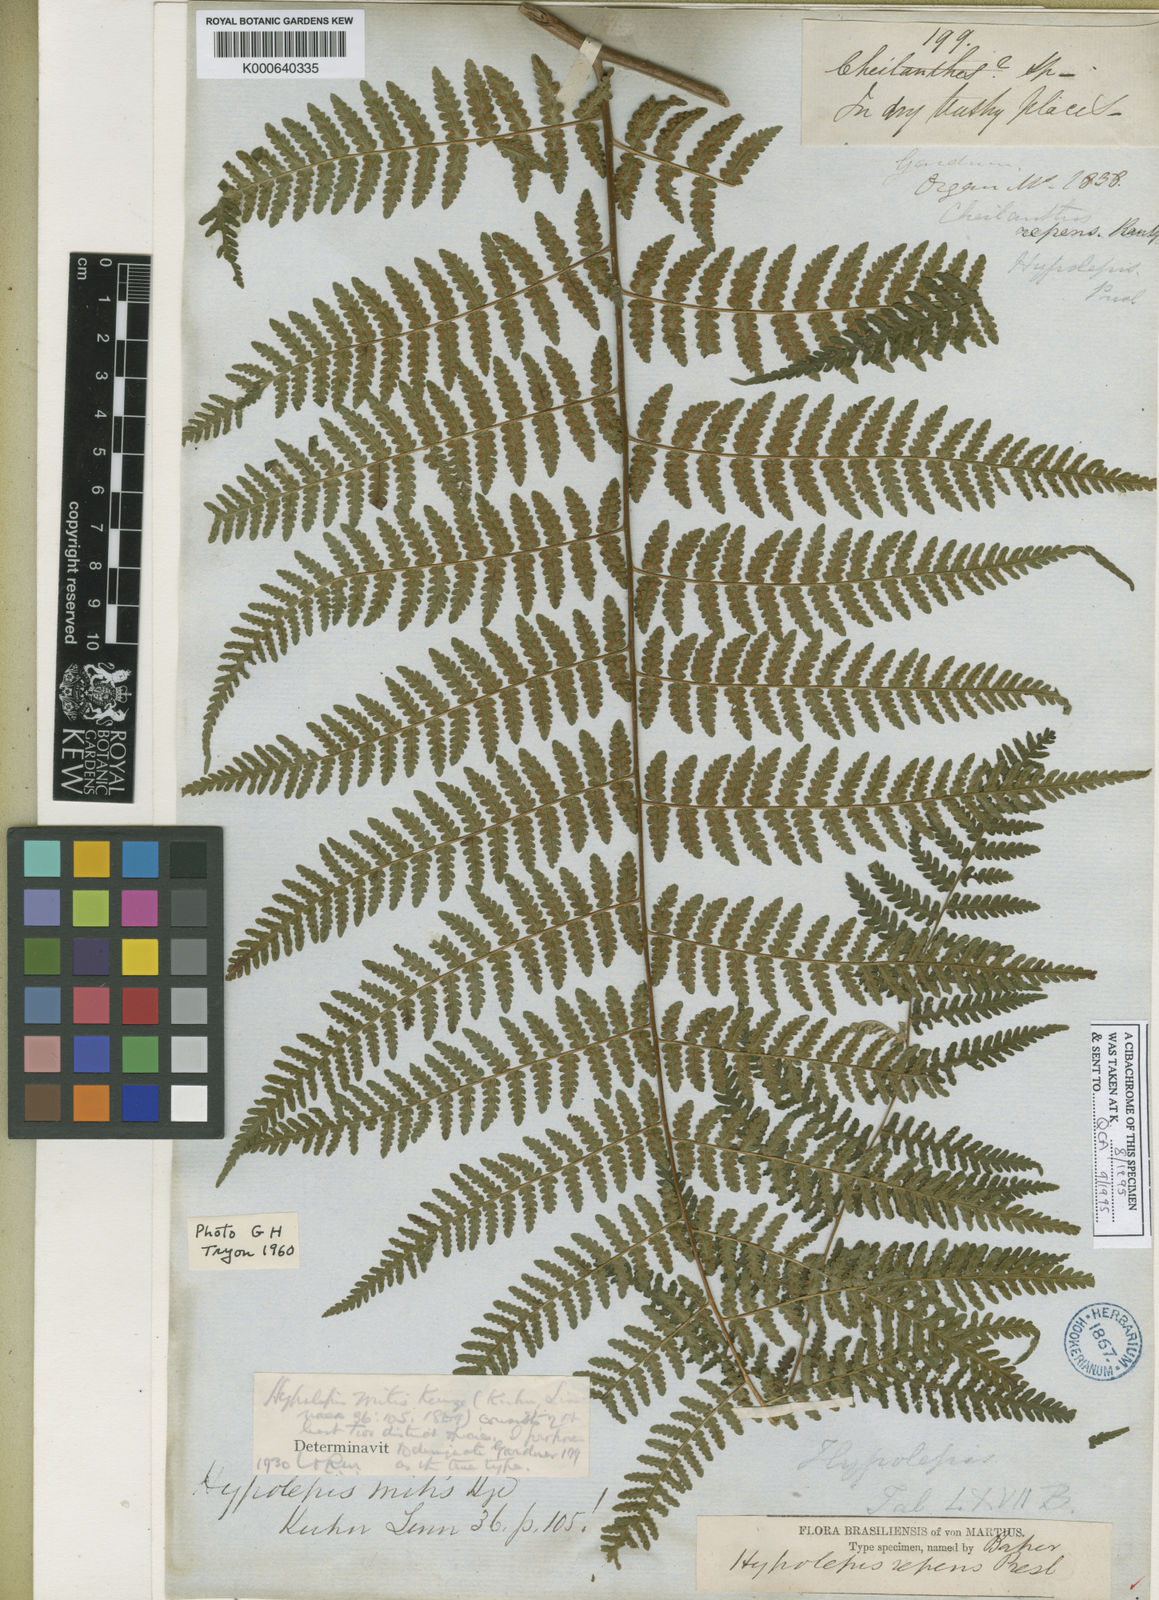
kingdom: Plantae
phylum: Tracheophyta
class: Polypodiopsida
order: Polypodiales
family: Dennstaedtiaceae
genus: Hypolepis
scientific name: Hypolepis
